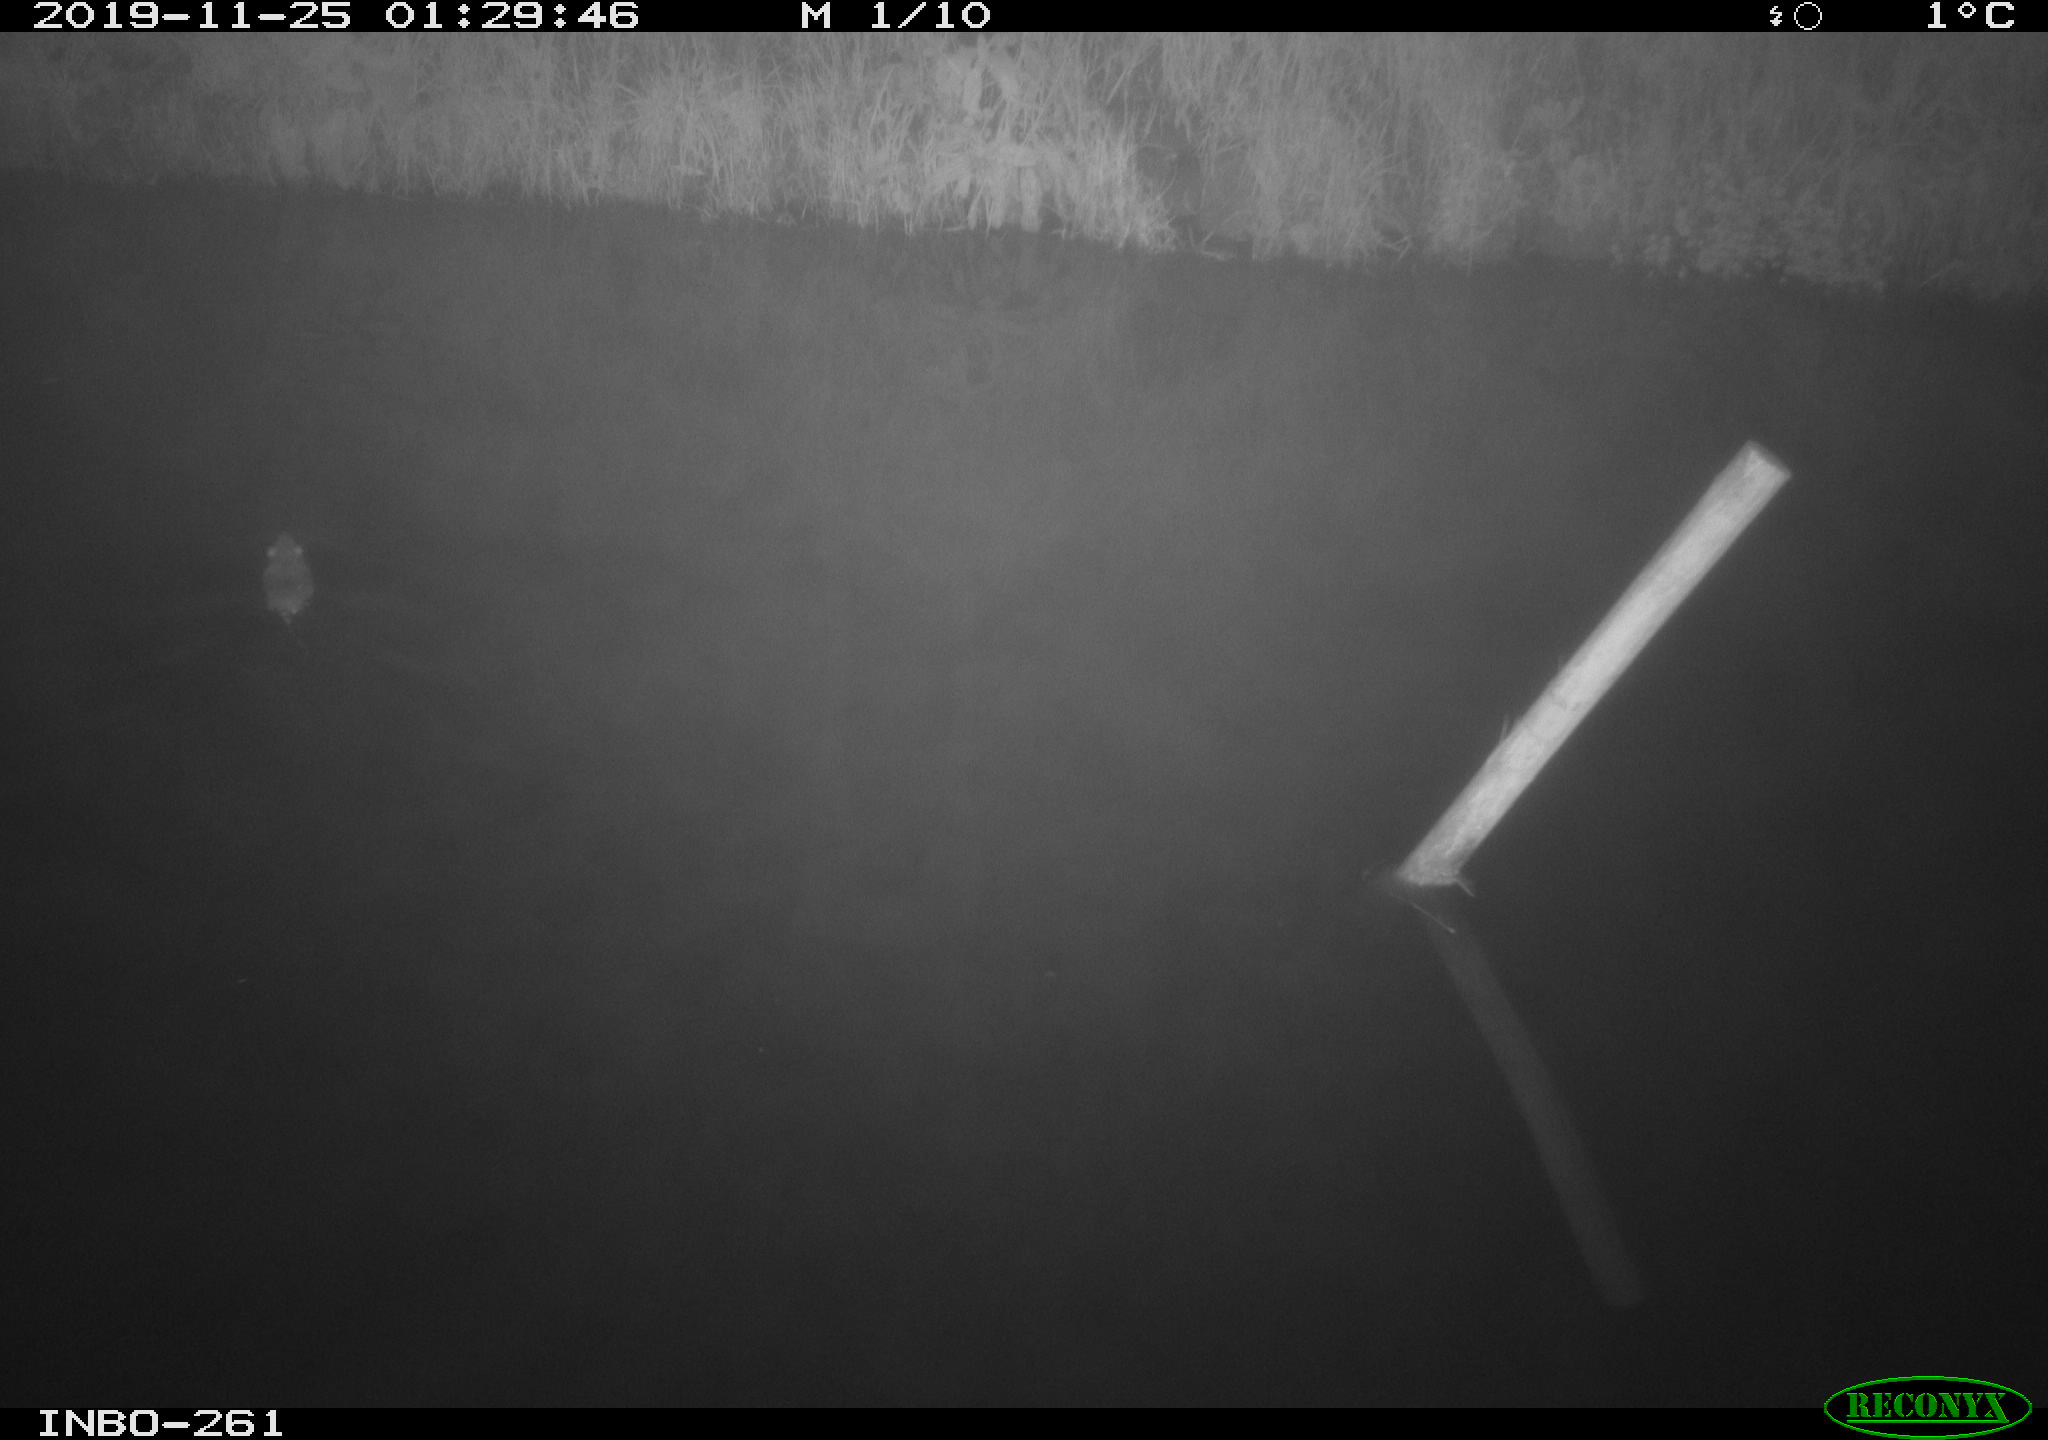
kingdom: Animalia
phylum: Chordata
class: Mammalia
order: Rodentia
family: Muridae
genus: Rattus
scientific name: Rattus norvegicus
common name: Brown rat
